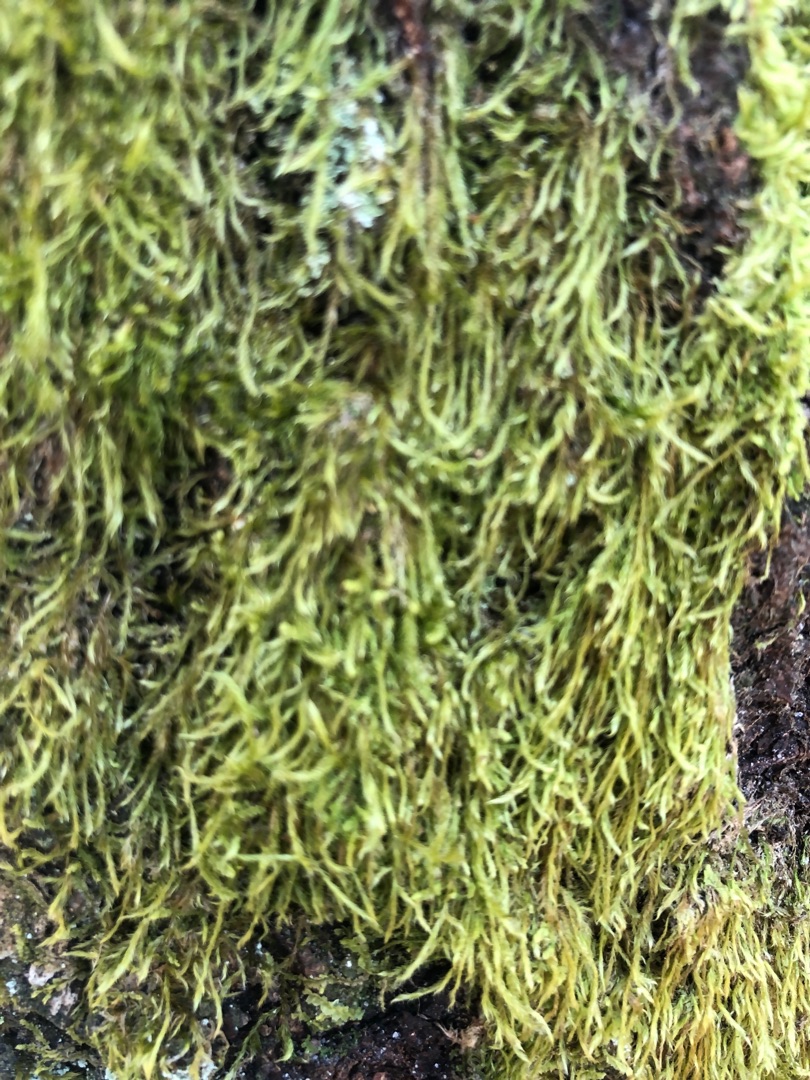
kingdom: Plantae
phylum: Bryophyta
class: Bryopsida
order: Hypnales
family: Hypnaceae
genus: Hypnum
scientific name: Hypnum
